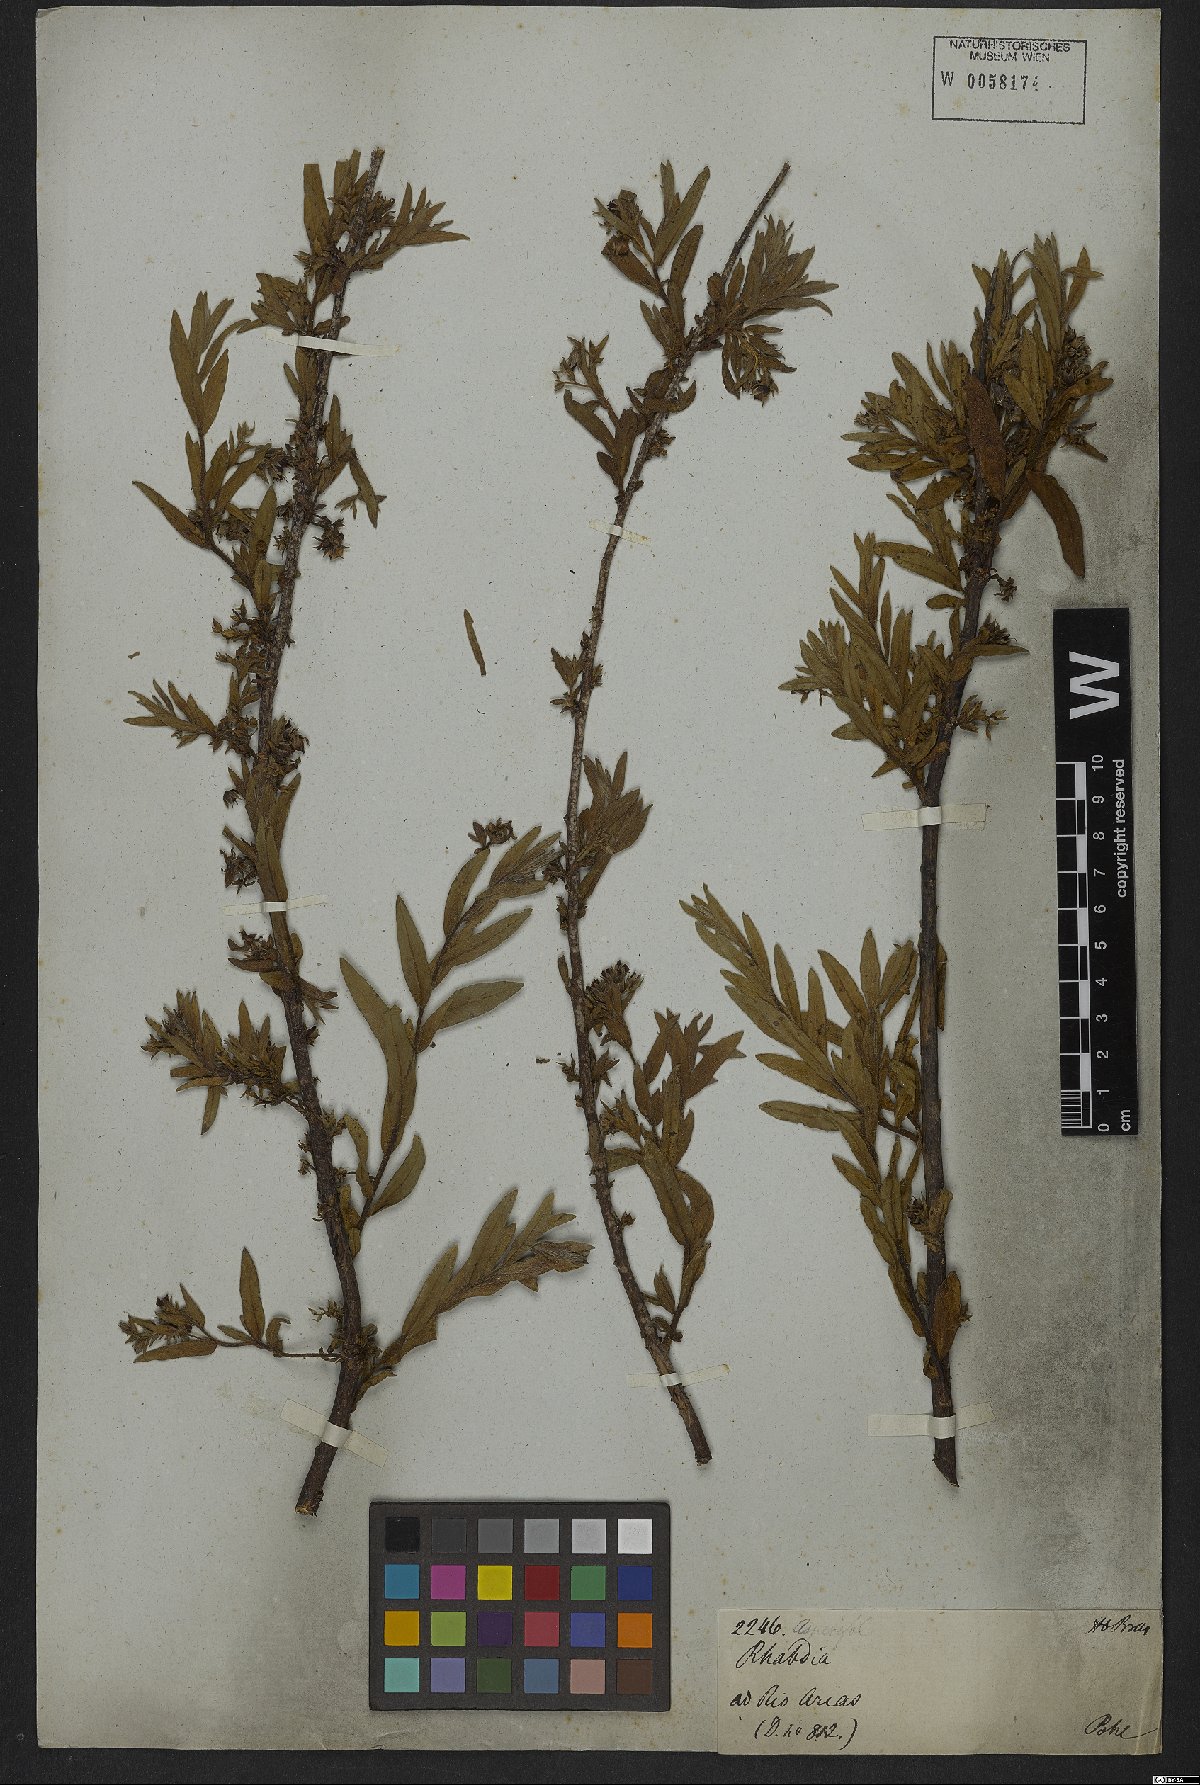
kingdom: Plantae
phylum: Tracheophyta
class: Magnoliopsida
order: Boraginales
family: Ehretiaceae
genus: Ehretia
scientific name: Ehretia lycioides
